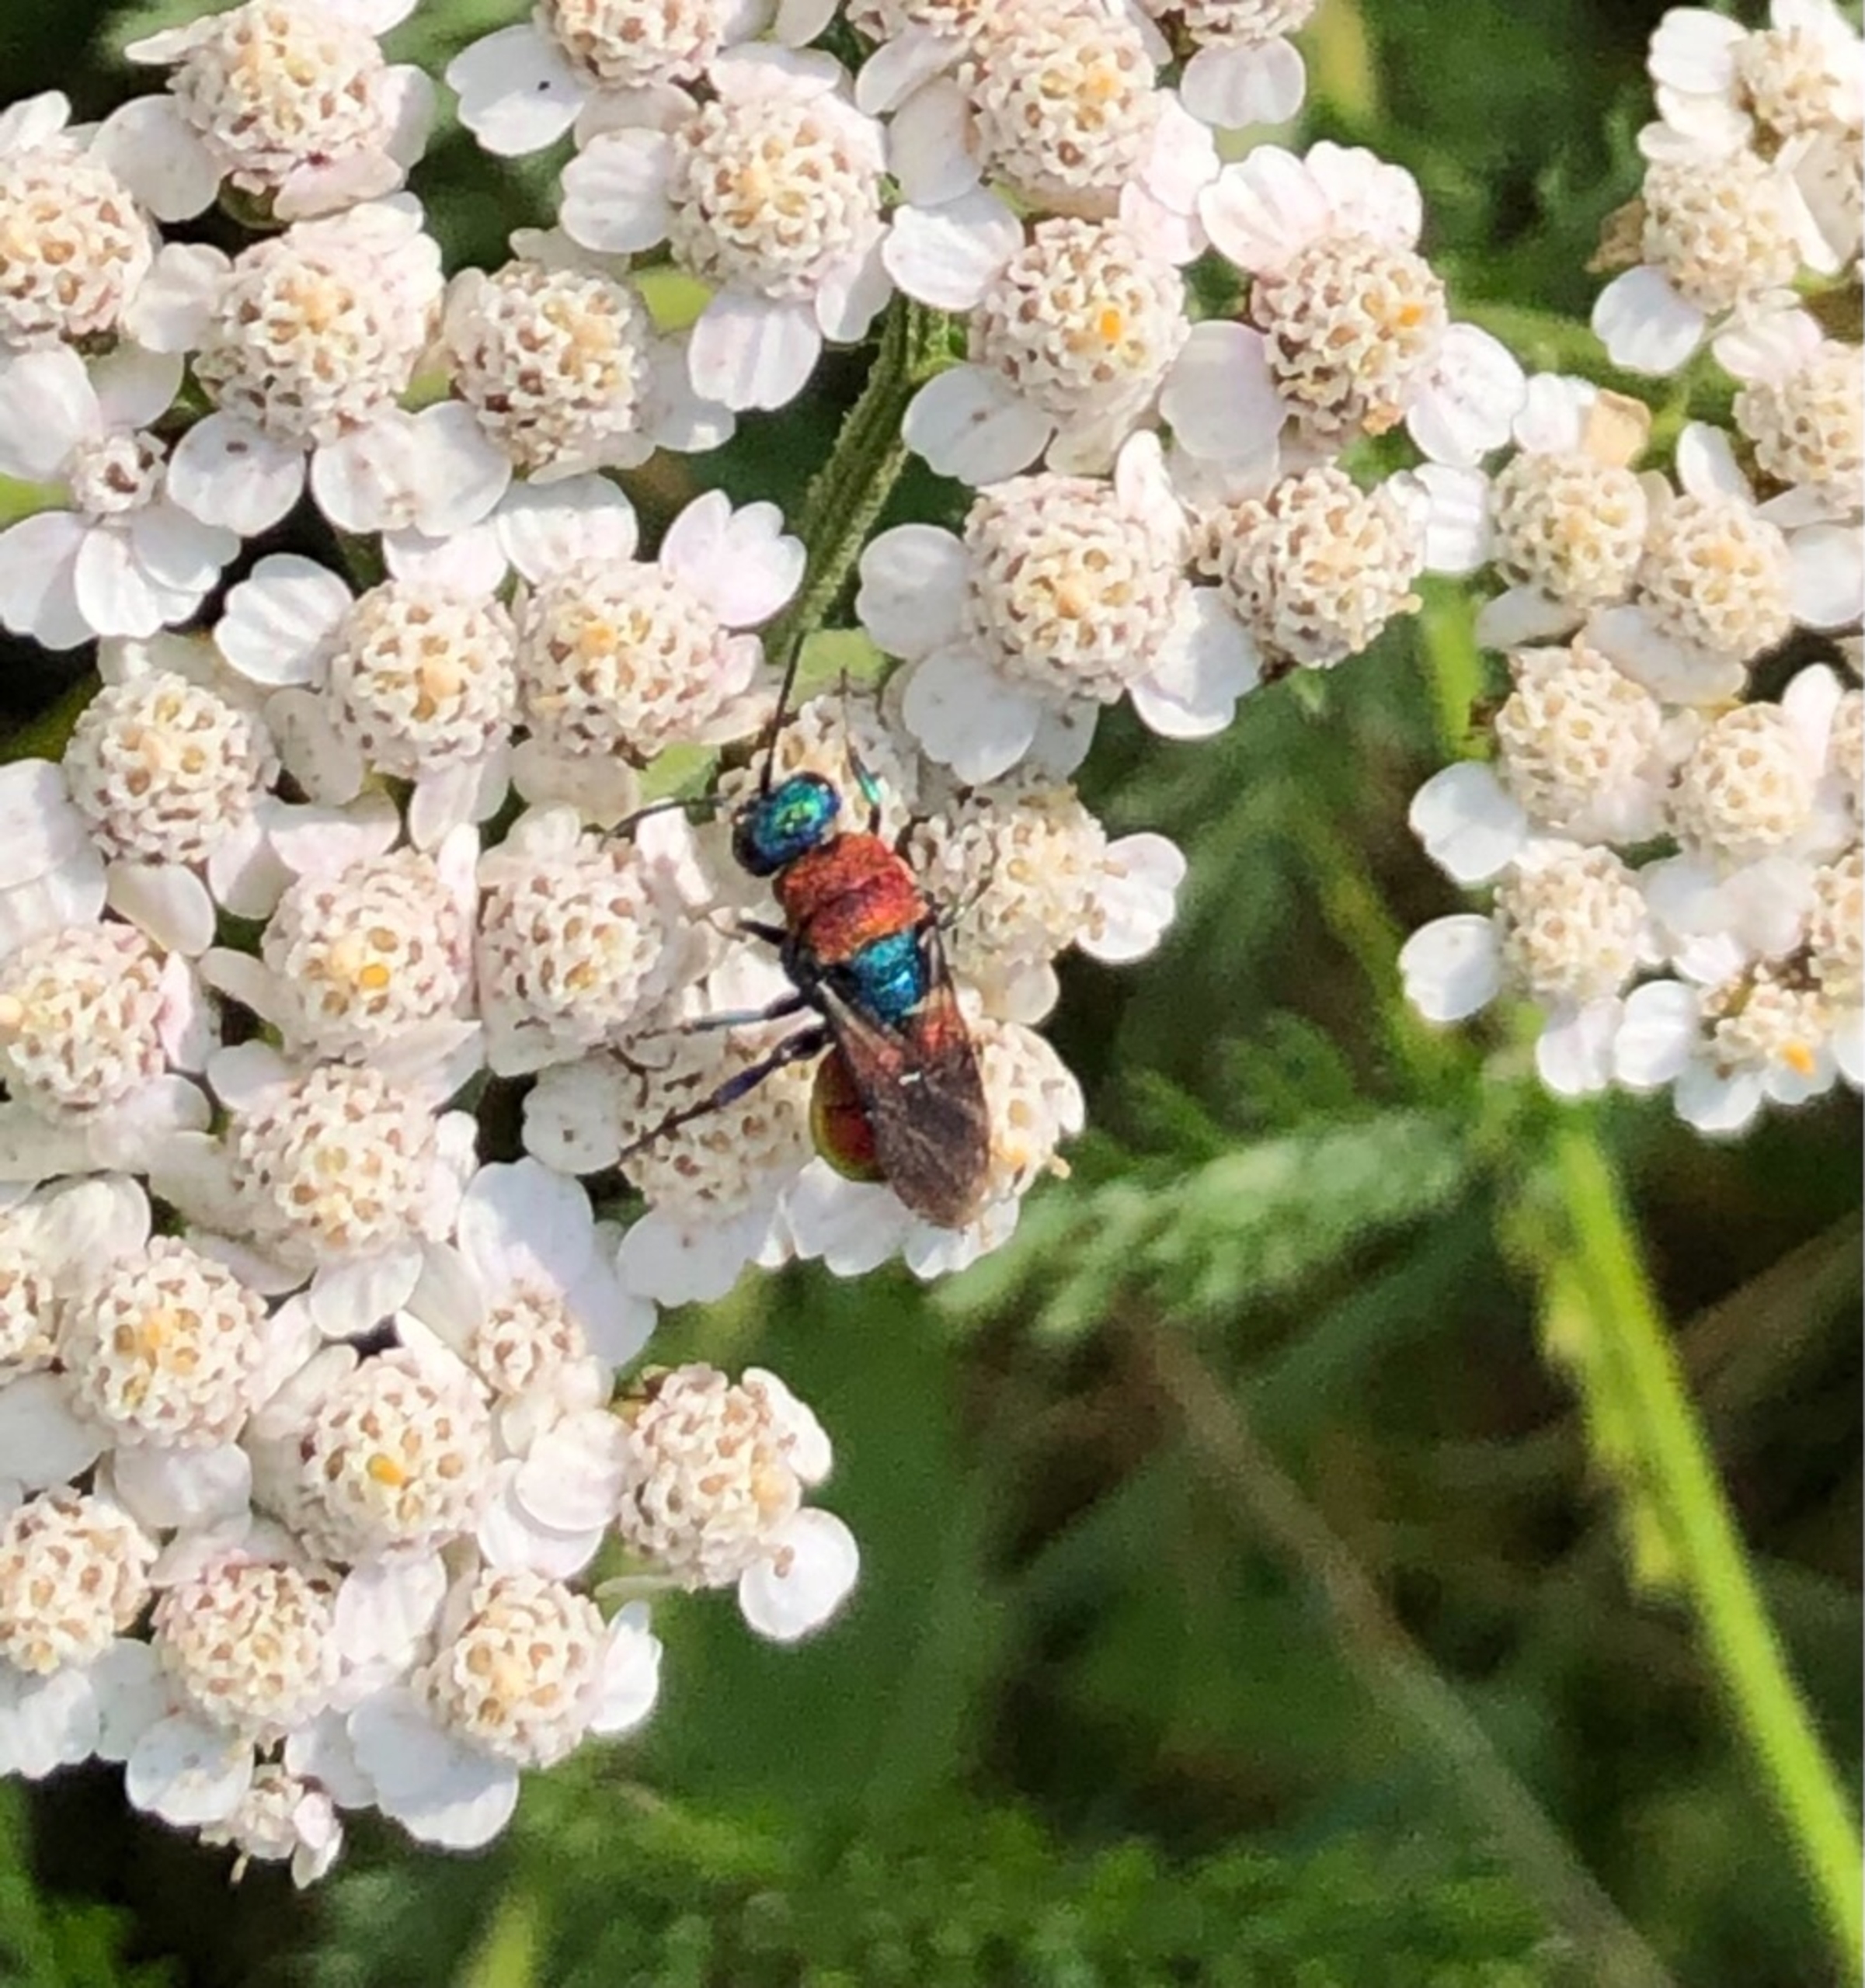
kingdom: Animalia
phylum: Arthropoda
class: Insecta
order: Hymenoptera
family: Chrysididae
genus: Hedychrum
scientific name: Hedychrum
